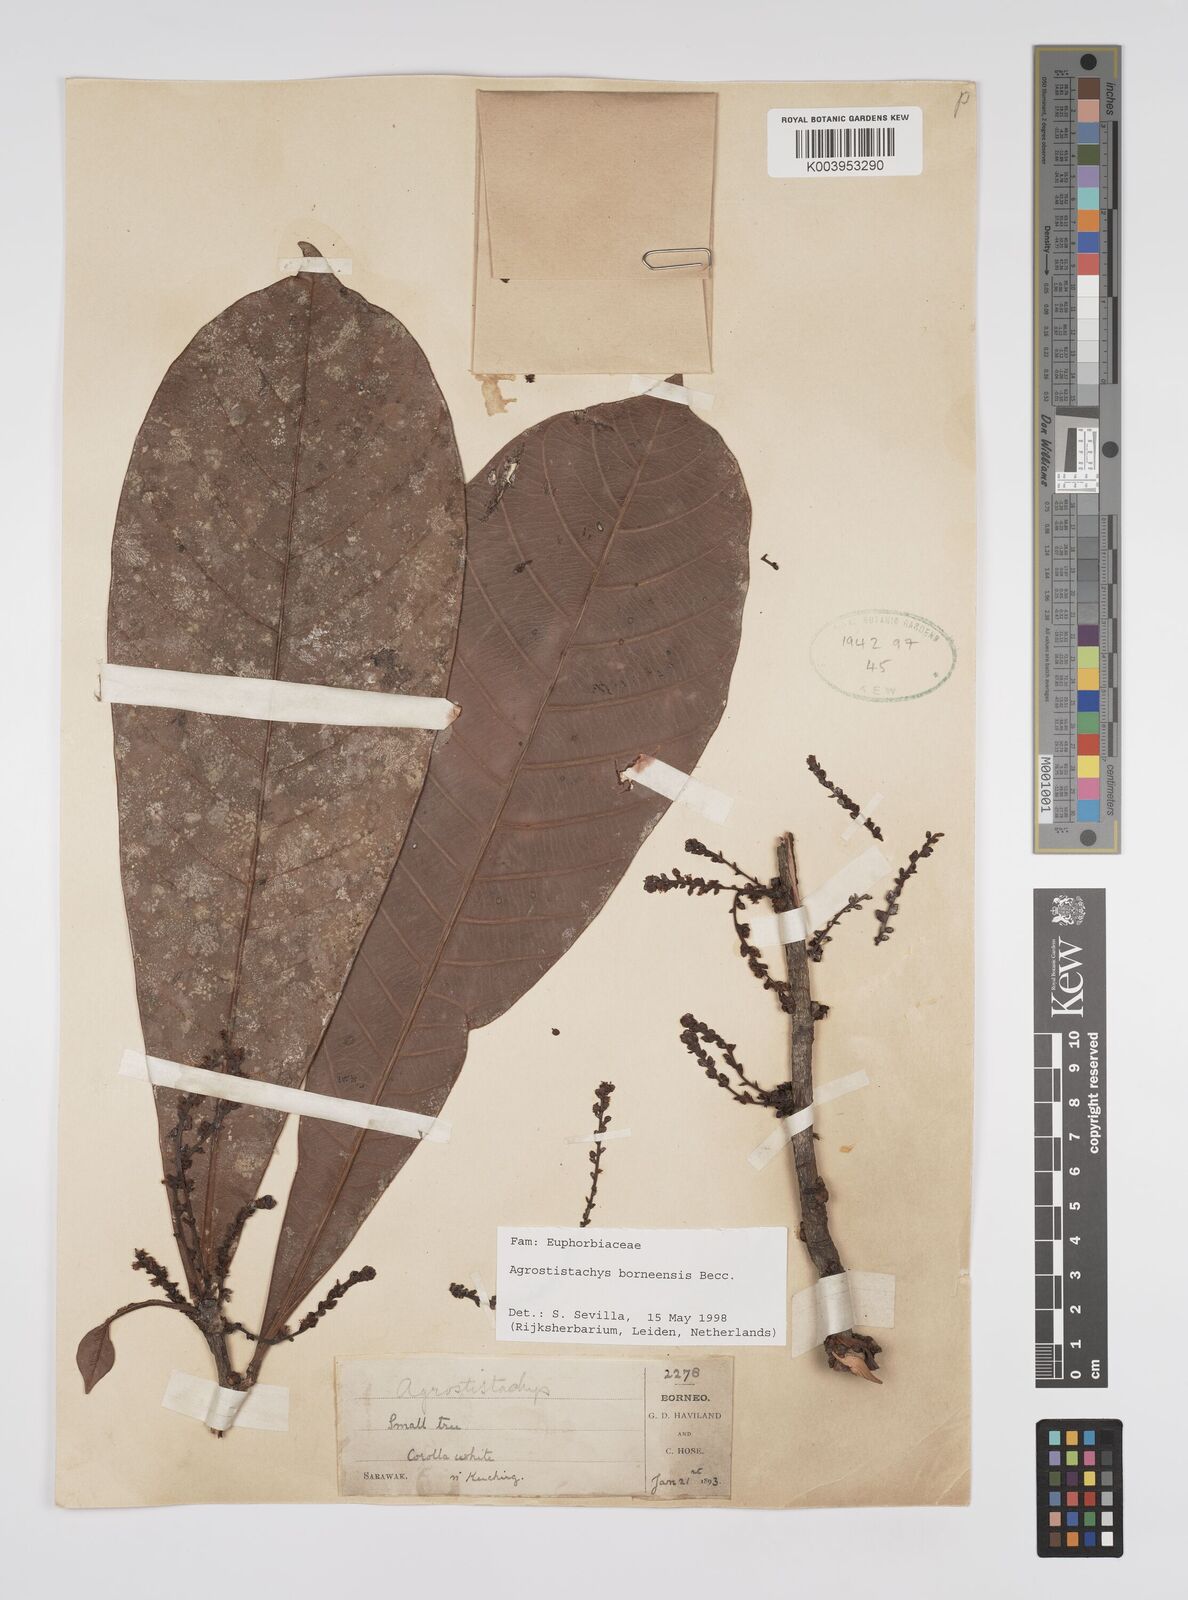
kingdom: Plantae
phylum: Tracheophyta
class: Magnoliopsida
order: Malpighiales
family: Euphorbiaceae
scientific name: Euphorbiaceae
